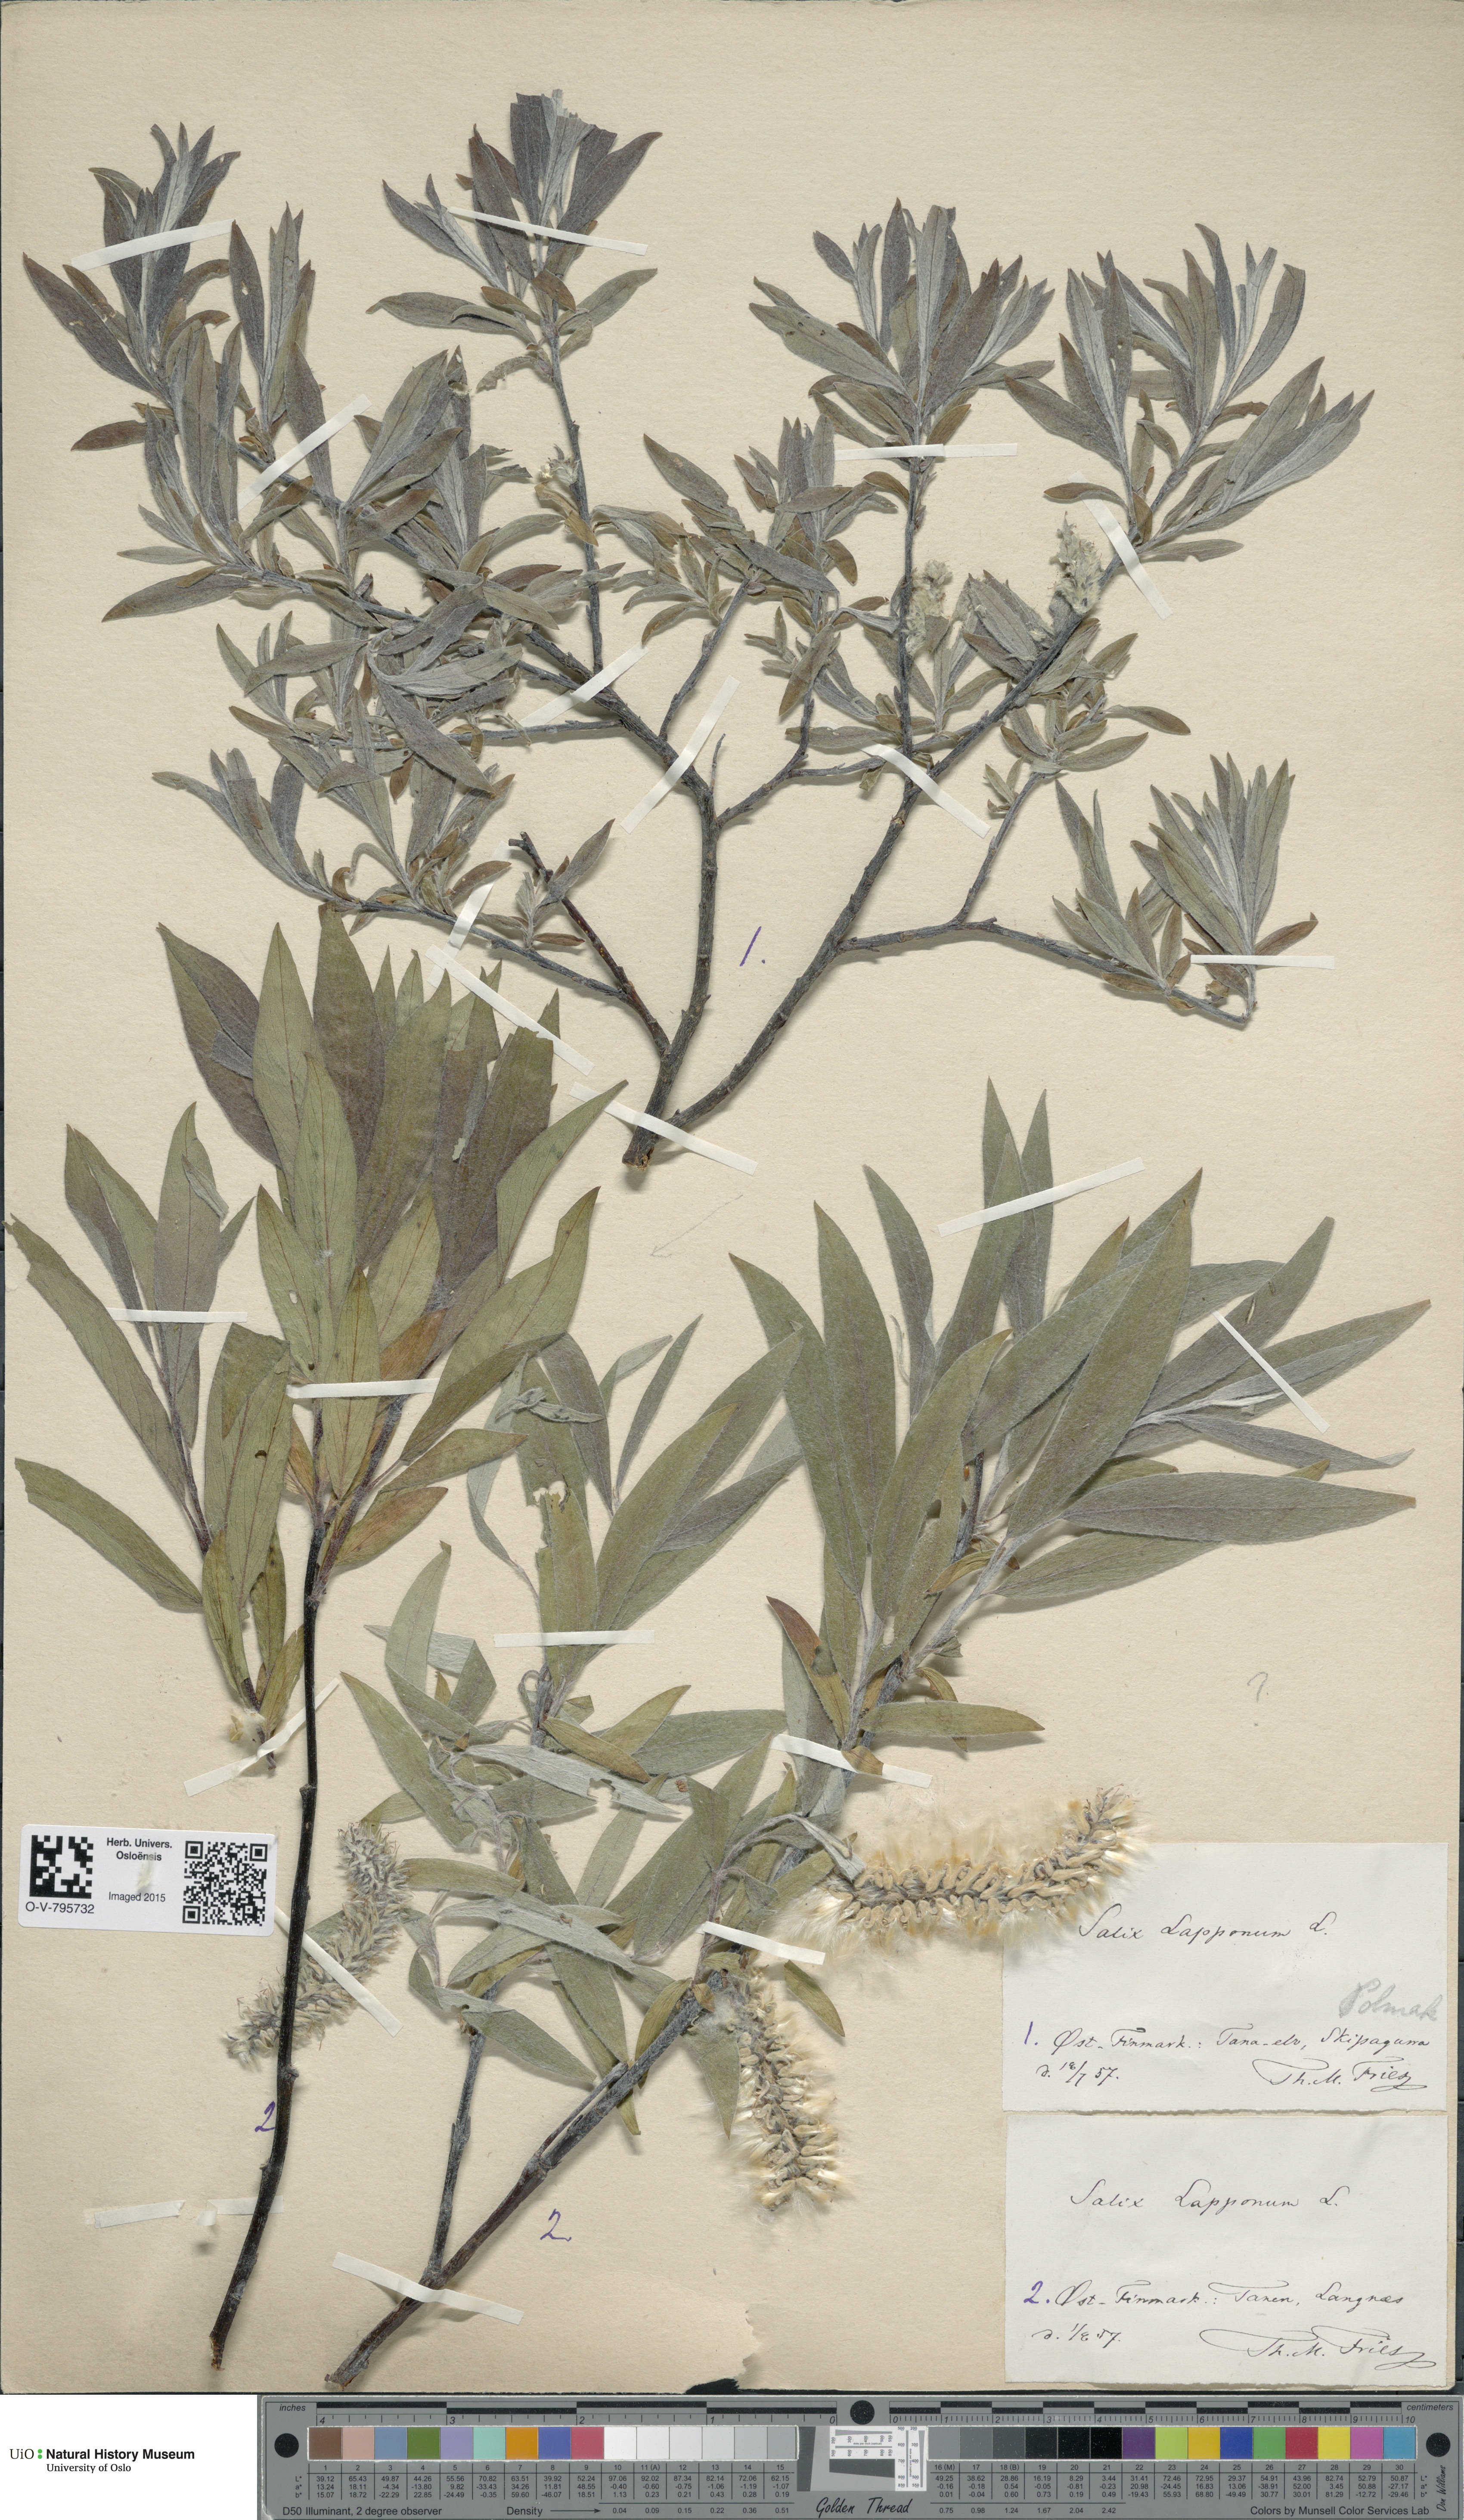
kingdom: Plantae
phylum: Tracheophyta
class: Magnoliopsida
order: Malpighiales
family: Salicaceae
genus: Salix
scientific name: Salix lapponum
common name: Downy willow
